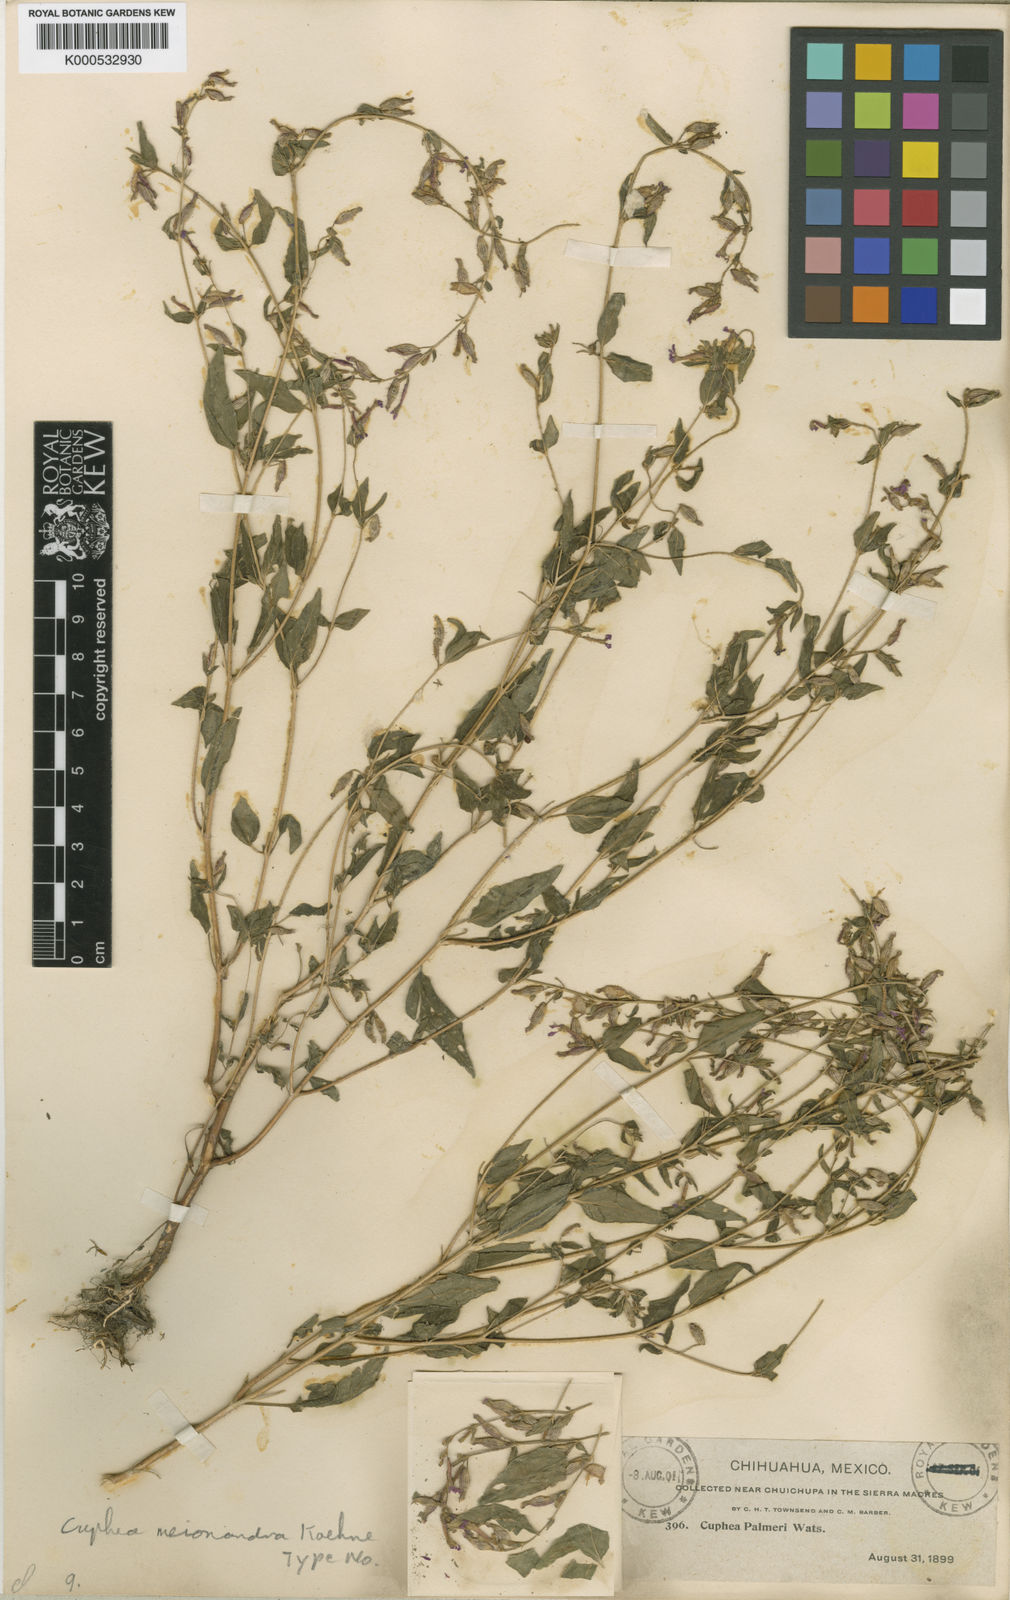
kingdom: Plantae
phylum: Tracheophyta
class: Magnoliopsida
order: Myrtales
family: Lythraceae
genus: Cuphea
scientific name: Cuphea wrightii
